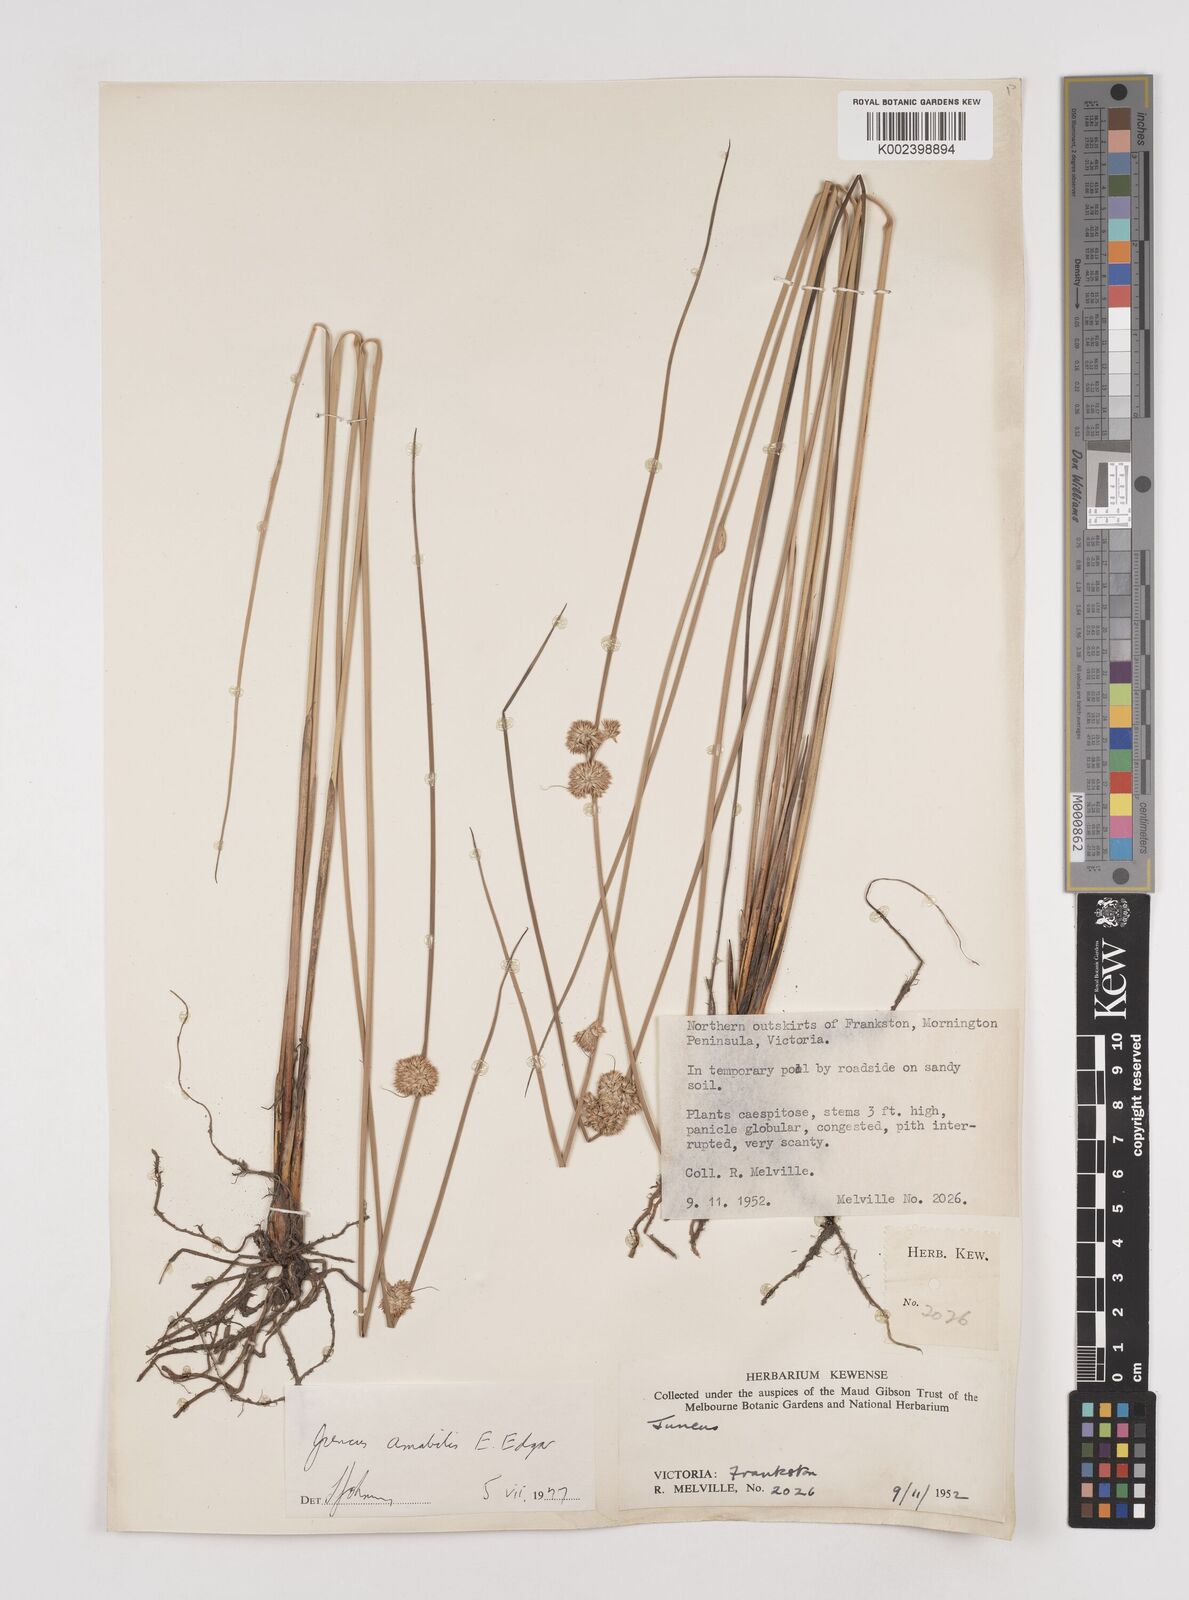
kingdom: Plantae
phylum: Tracheophyta
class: Liliopsida
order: Poales
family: Juncaceae
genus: Juncus
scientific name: Juncus amabilis
